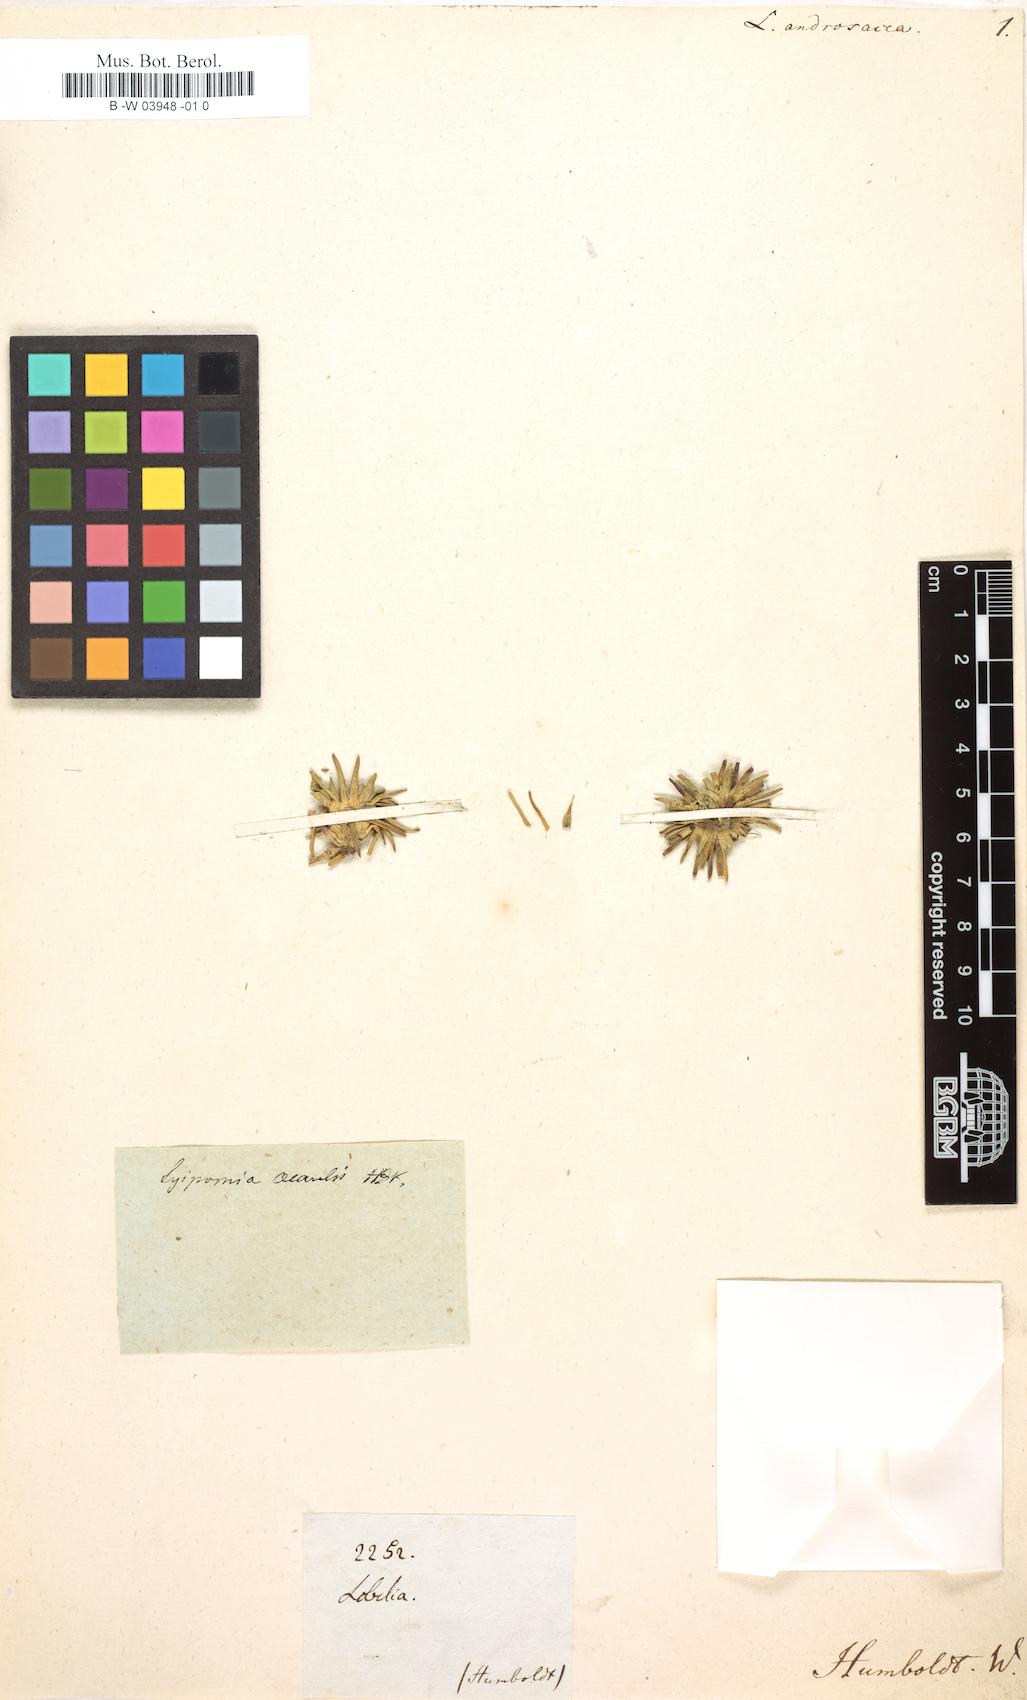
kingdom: Plantae
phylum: Tracheophyta
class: Magnoliopsida
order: Asterales
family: Campanulaceae
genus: Lysipomia
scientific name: Lysipomia acaulis
